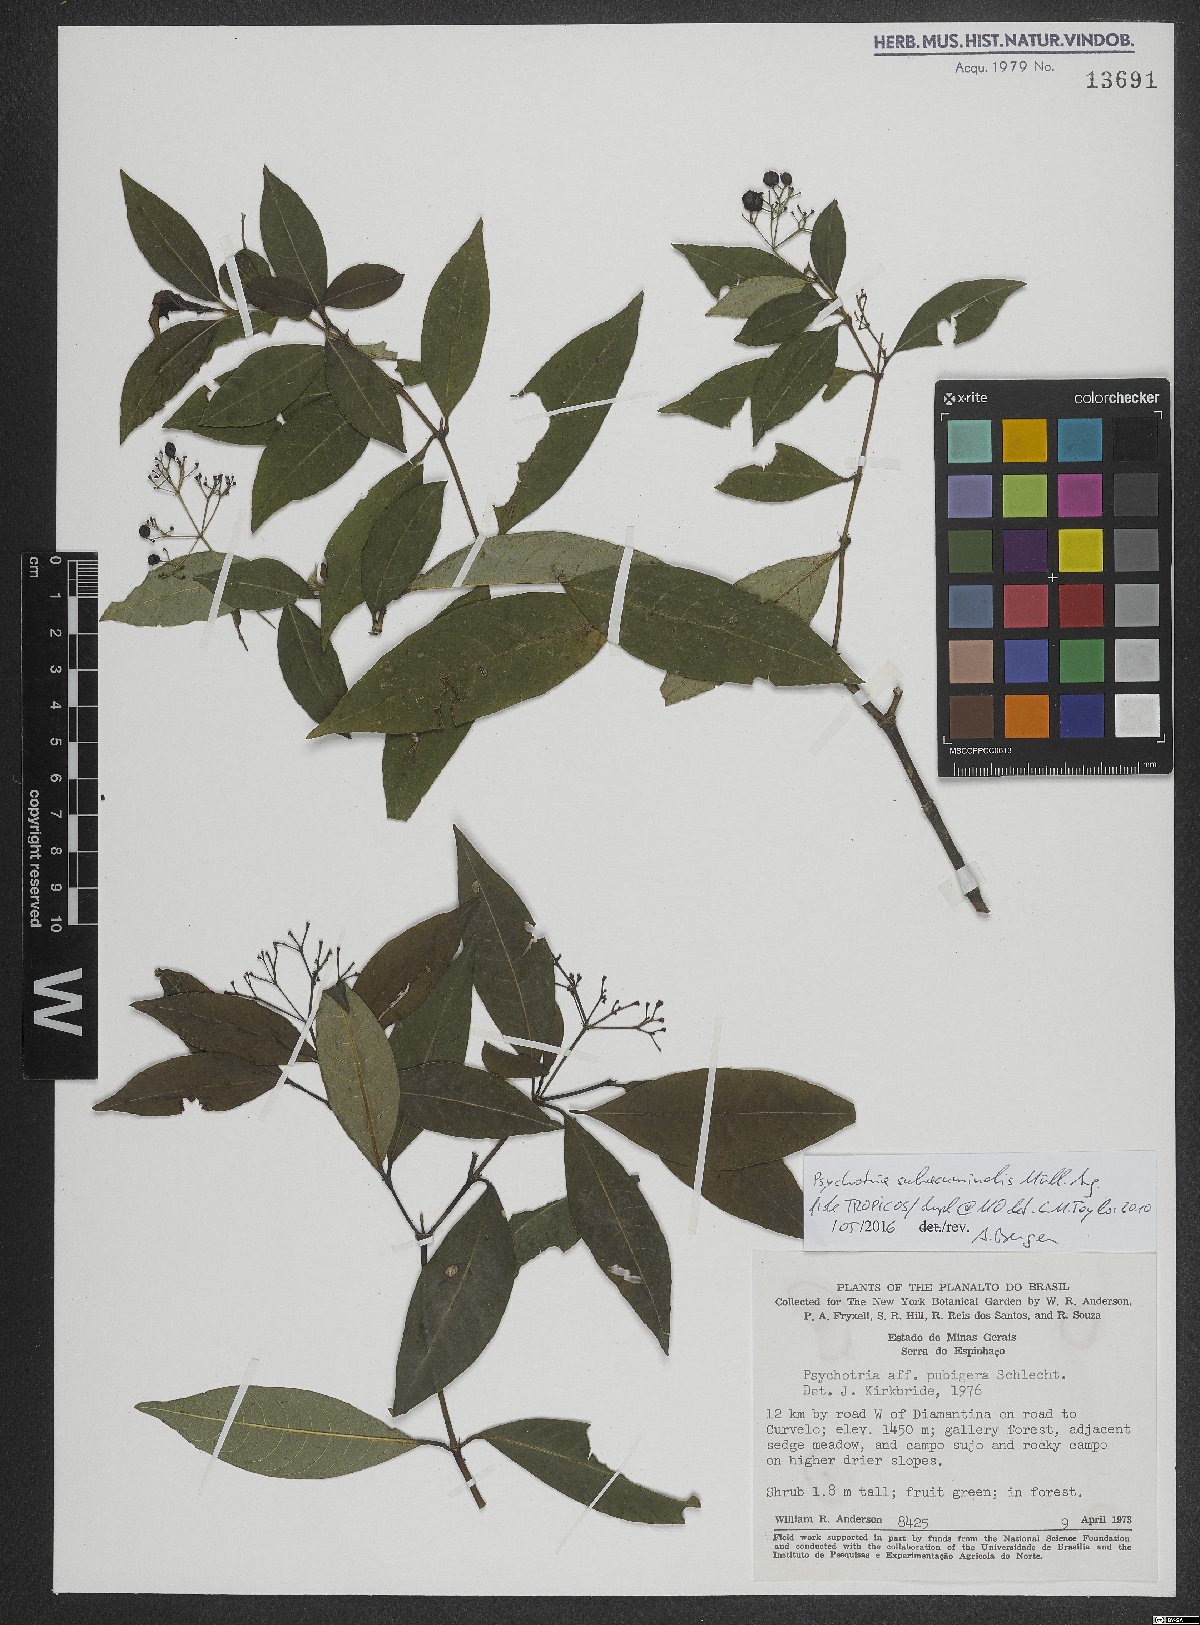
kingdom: Plantae
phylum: Tracheophyta
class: Magnoliopsida
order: Gentianales
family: Rubiaceae
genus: Psychotria
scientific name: Psychotria subacuminalis
